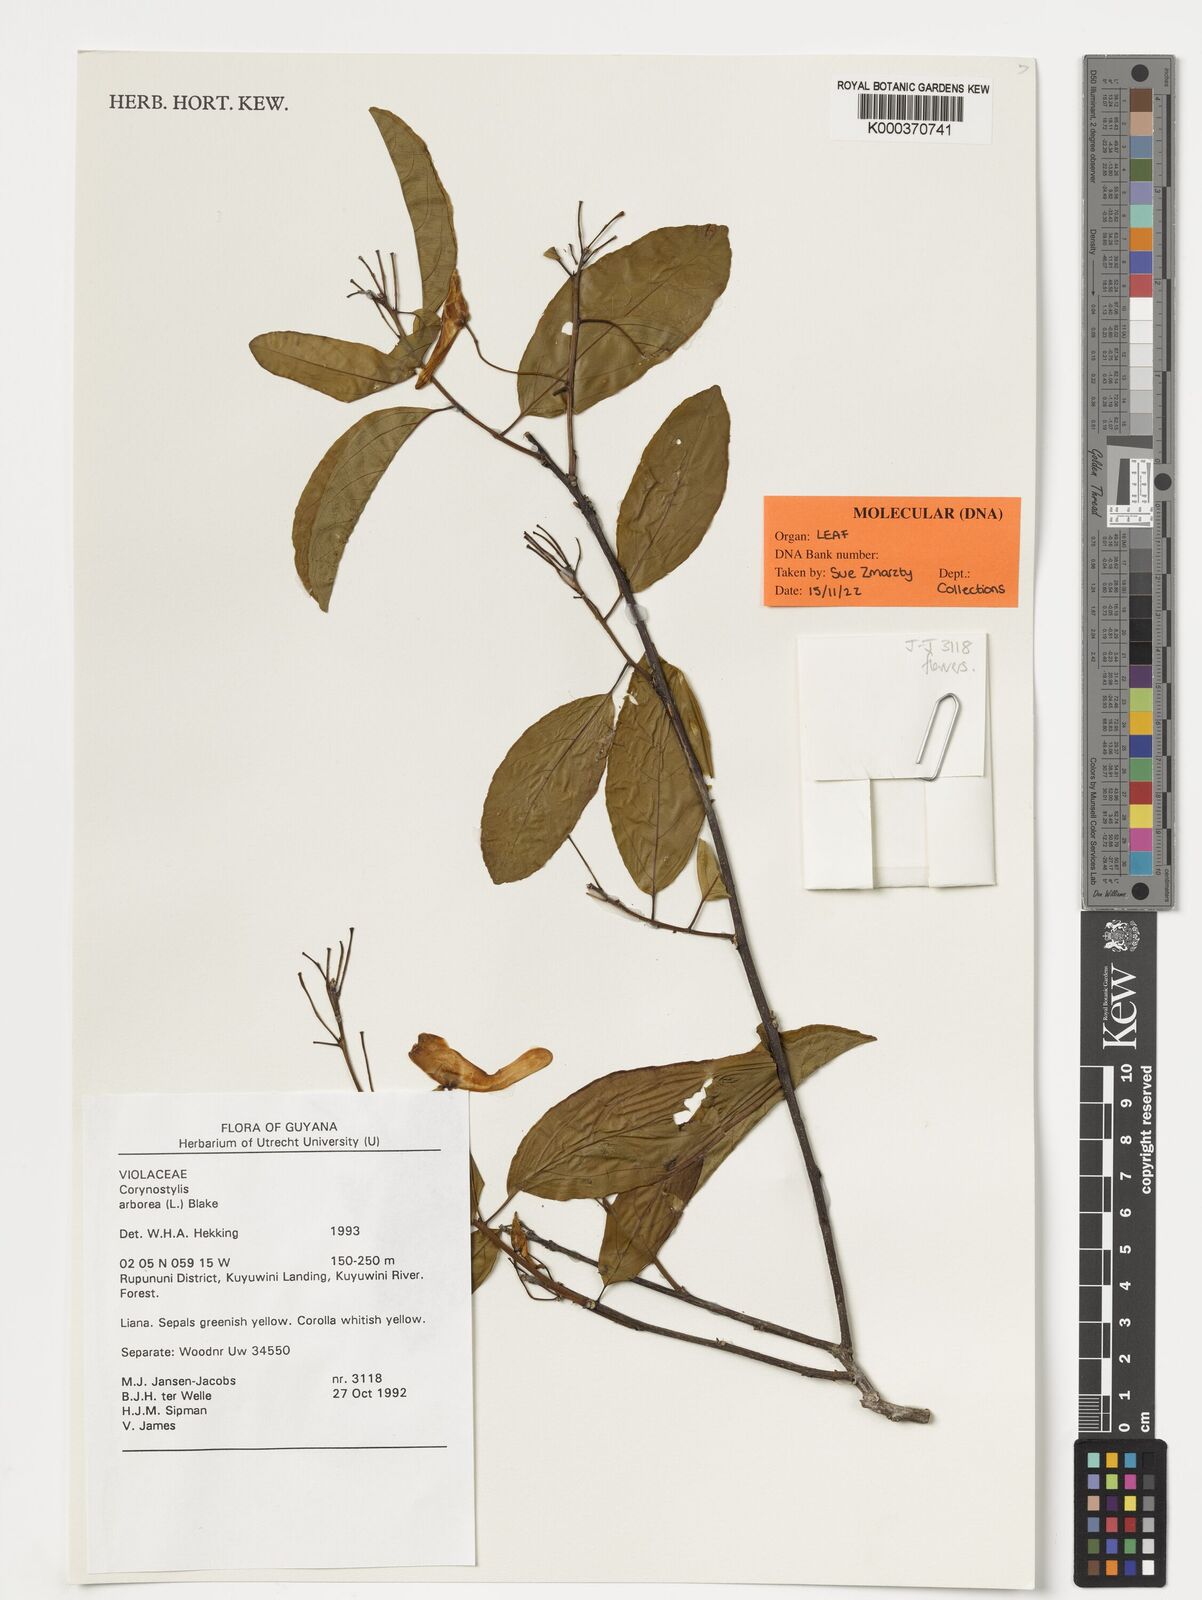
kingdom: Plantae
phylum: Tracheophyta
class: Magnoliopsida
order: Malpighiales
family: Violaceae
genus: Calyptrion
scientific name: Calyptrion arboreum
